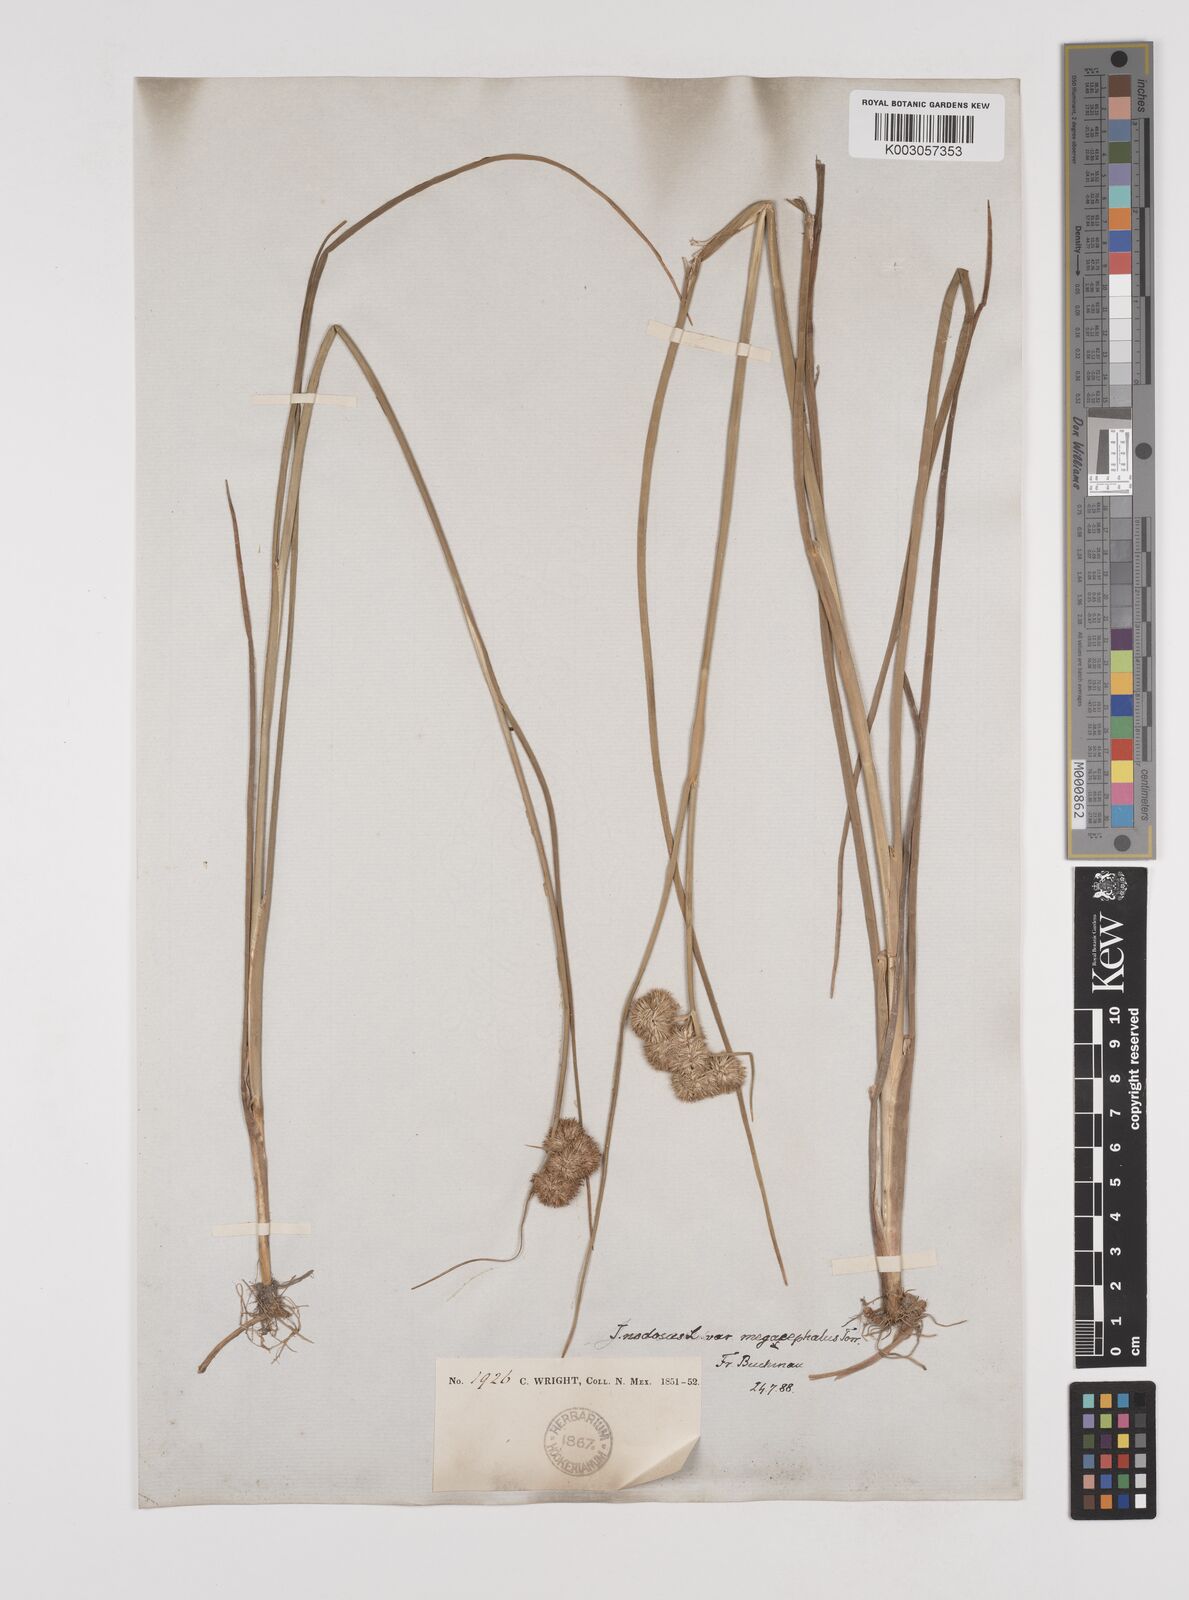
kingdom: Plantae
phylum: Tracheophyta
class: Liliopsida
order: Poales
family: Juncaceae
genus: Juncus
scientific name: Juncus nodosus
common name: Knotted rush
